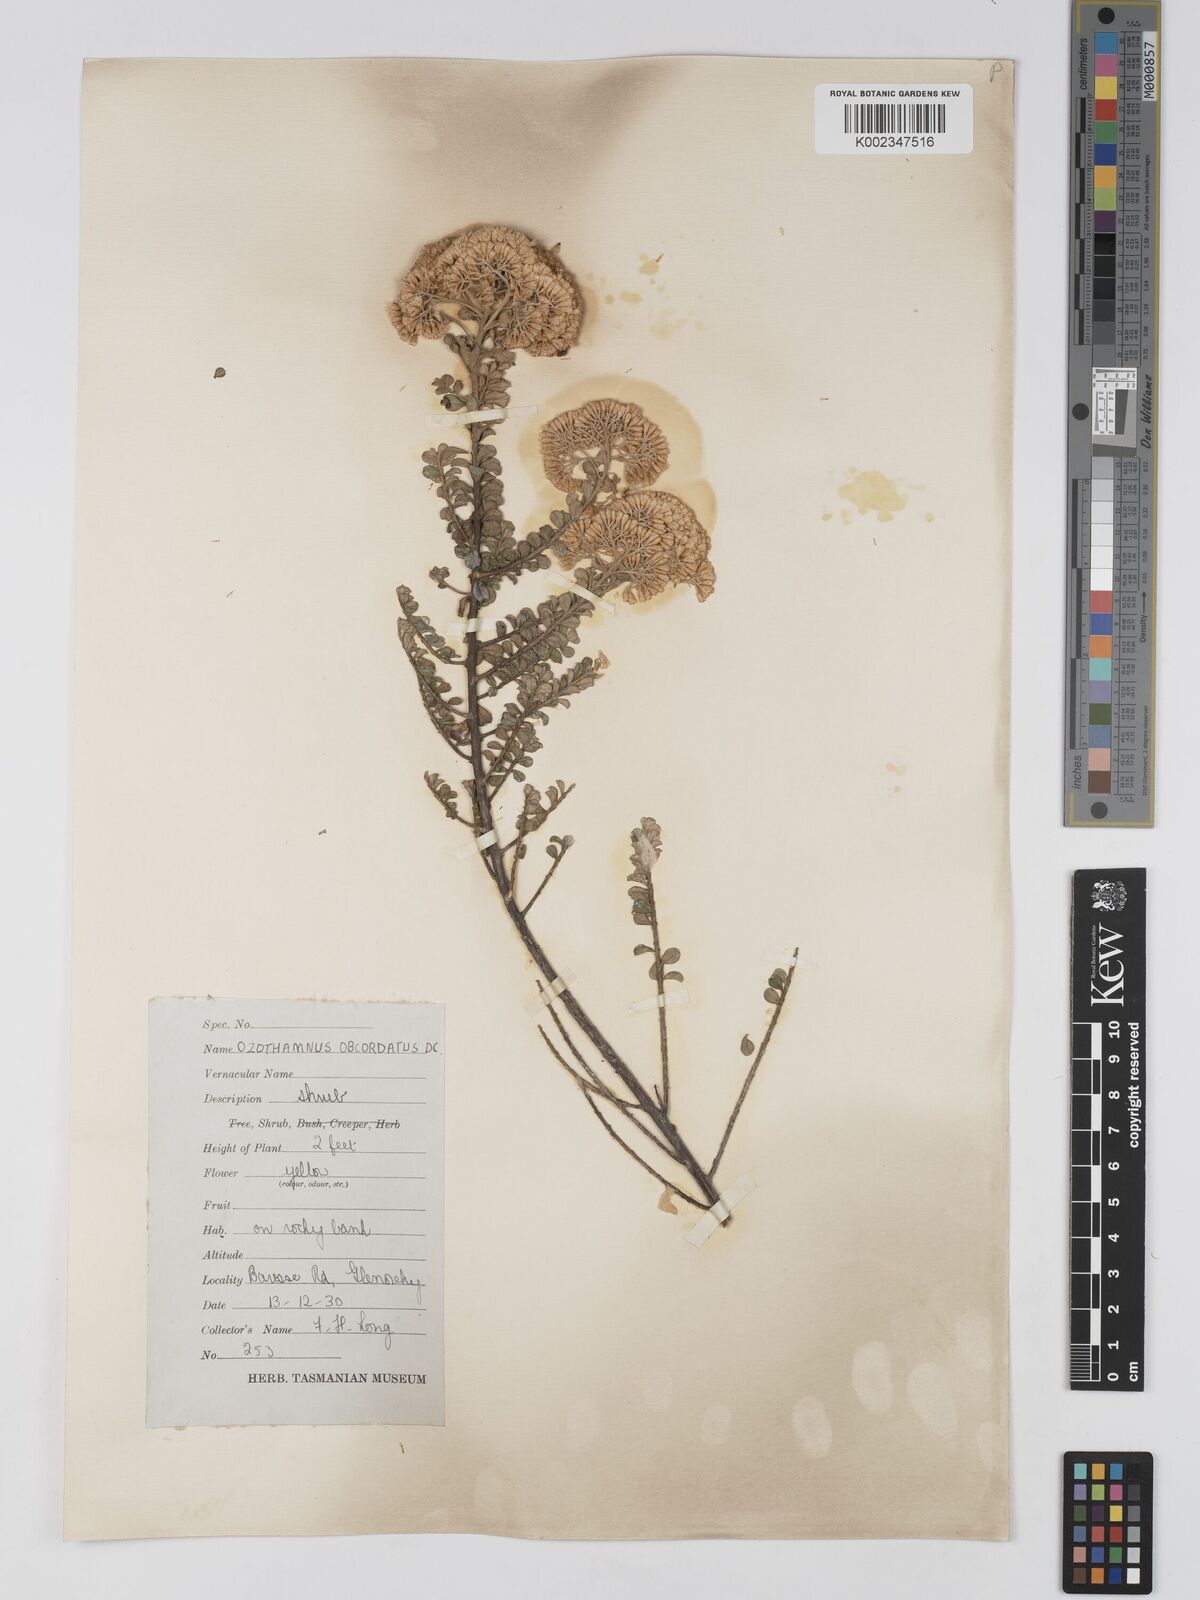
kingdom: Plantae
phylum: Tracheophyta
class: Magnoliopsida
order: Asterales
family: Asteraceae
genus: Ozothamnus
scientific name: Ozothamnus
